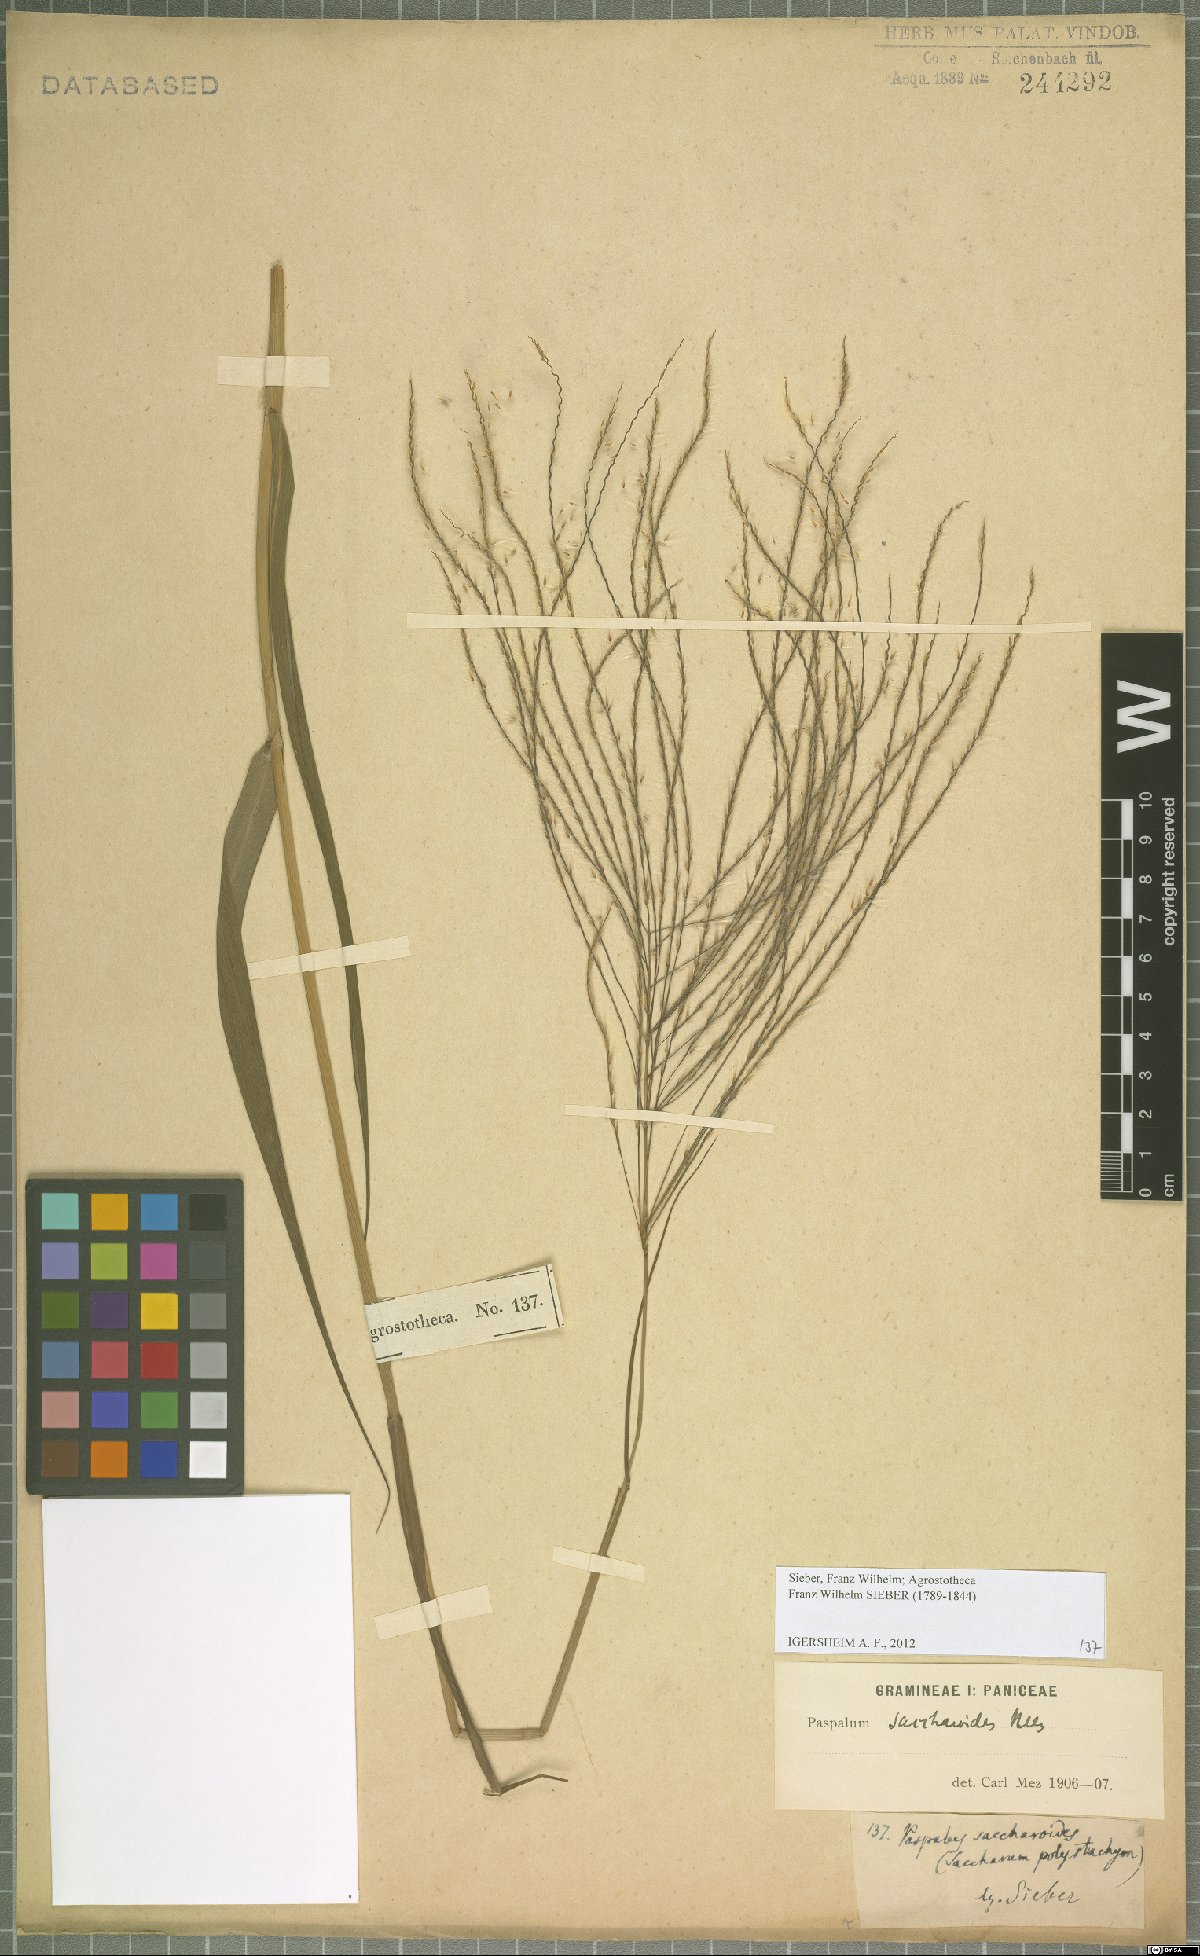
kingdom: Plantae
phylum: Tracheophyta
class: Liliopsida
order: Poales
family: Poaceae
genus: Paspalum
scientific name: Paspalum saccharoides
